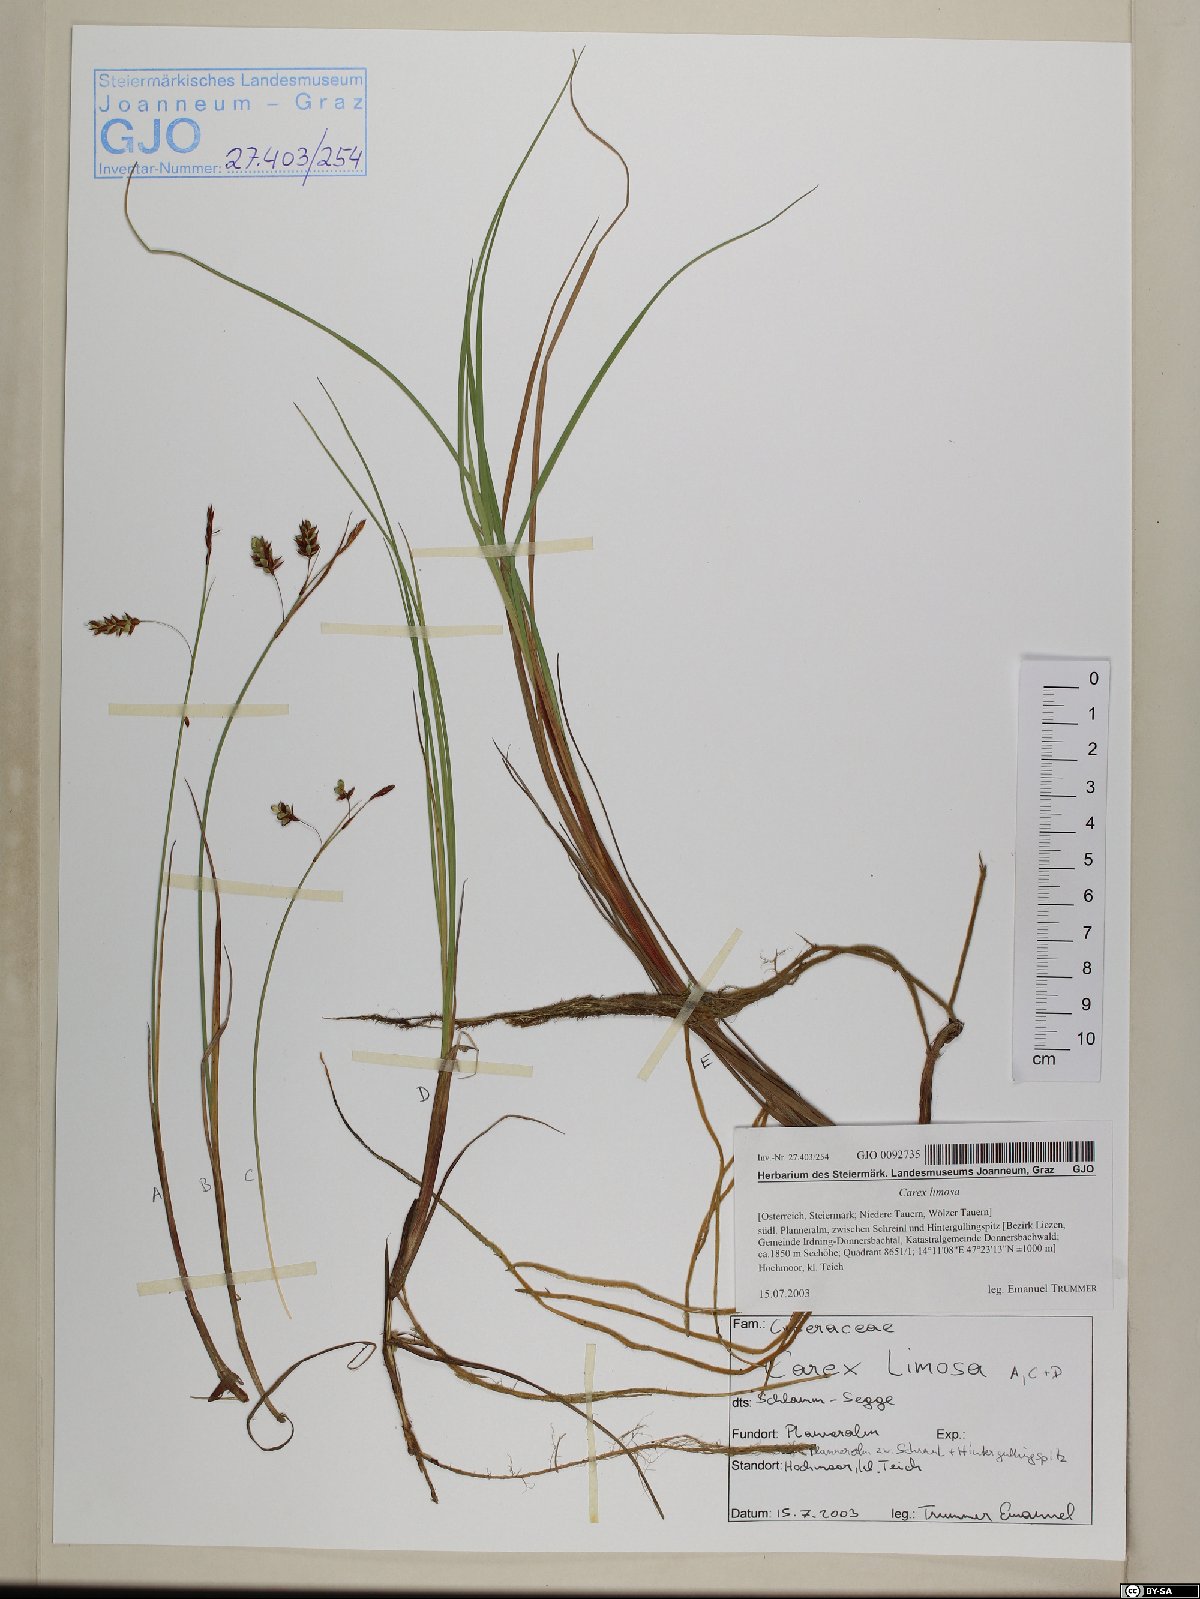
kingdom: Plantae
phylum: Tracheophyta
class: Liliopsida
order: Poales
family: Cyperaceae
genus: Carex
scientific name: Carex limosa
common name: Bog sedge
